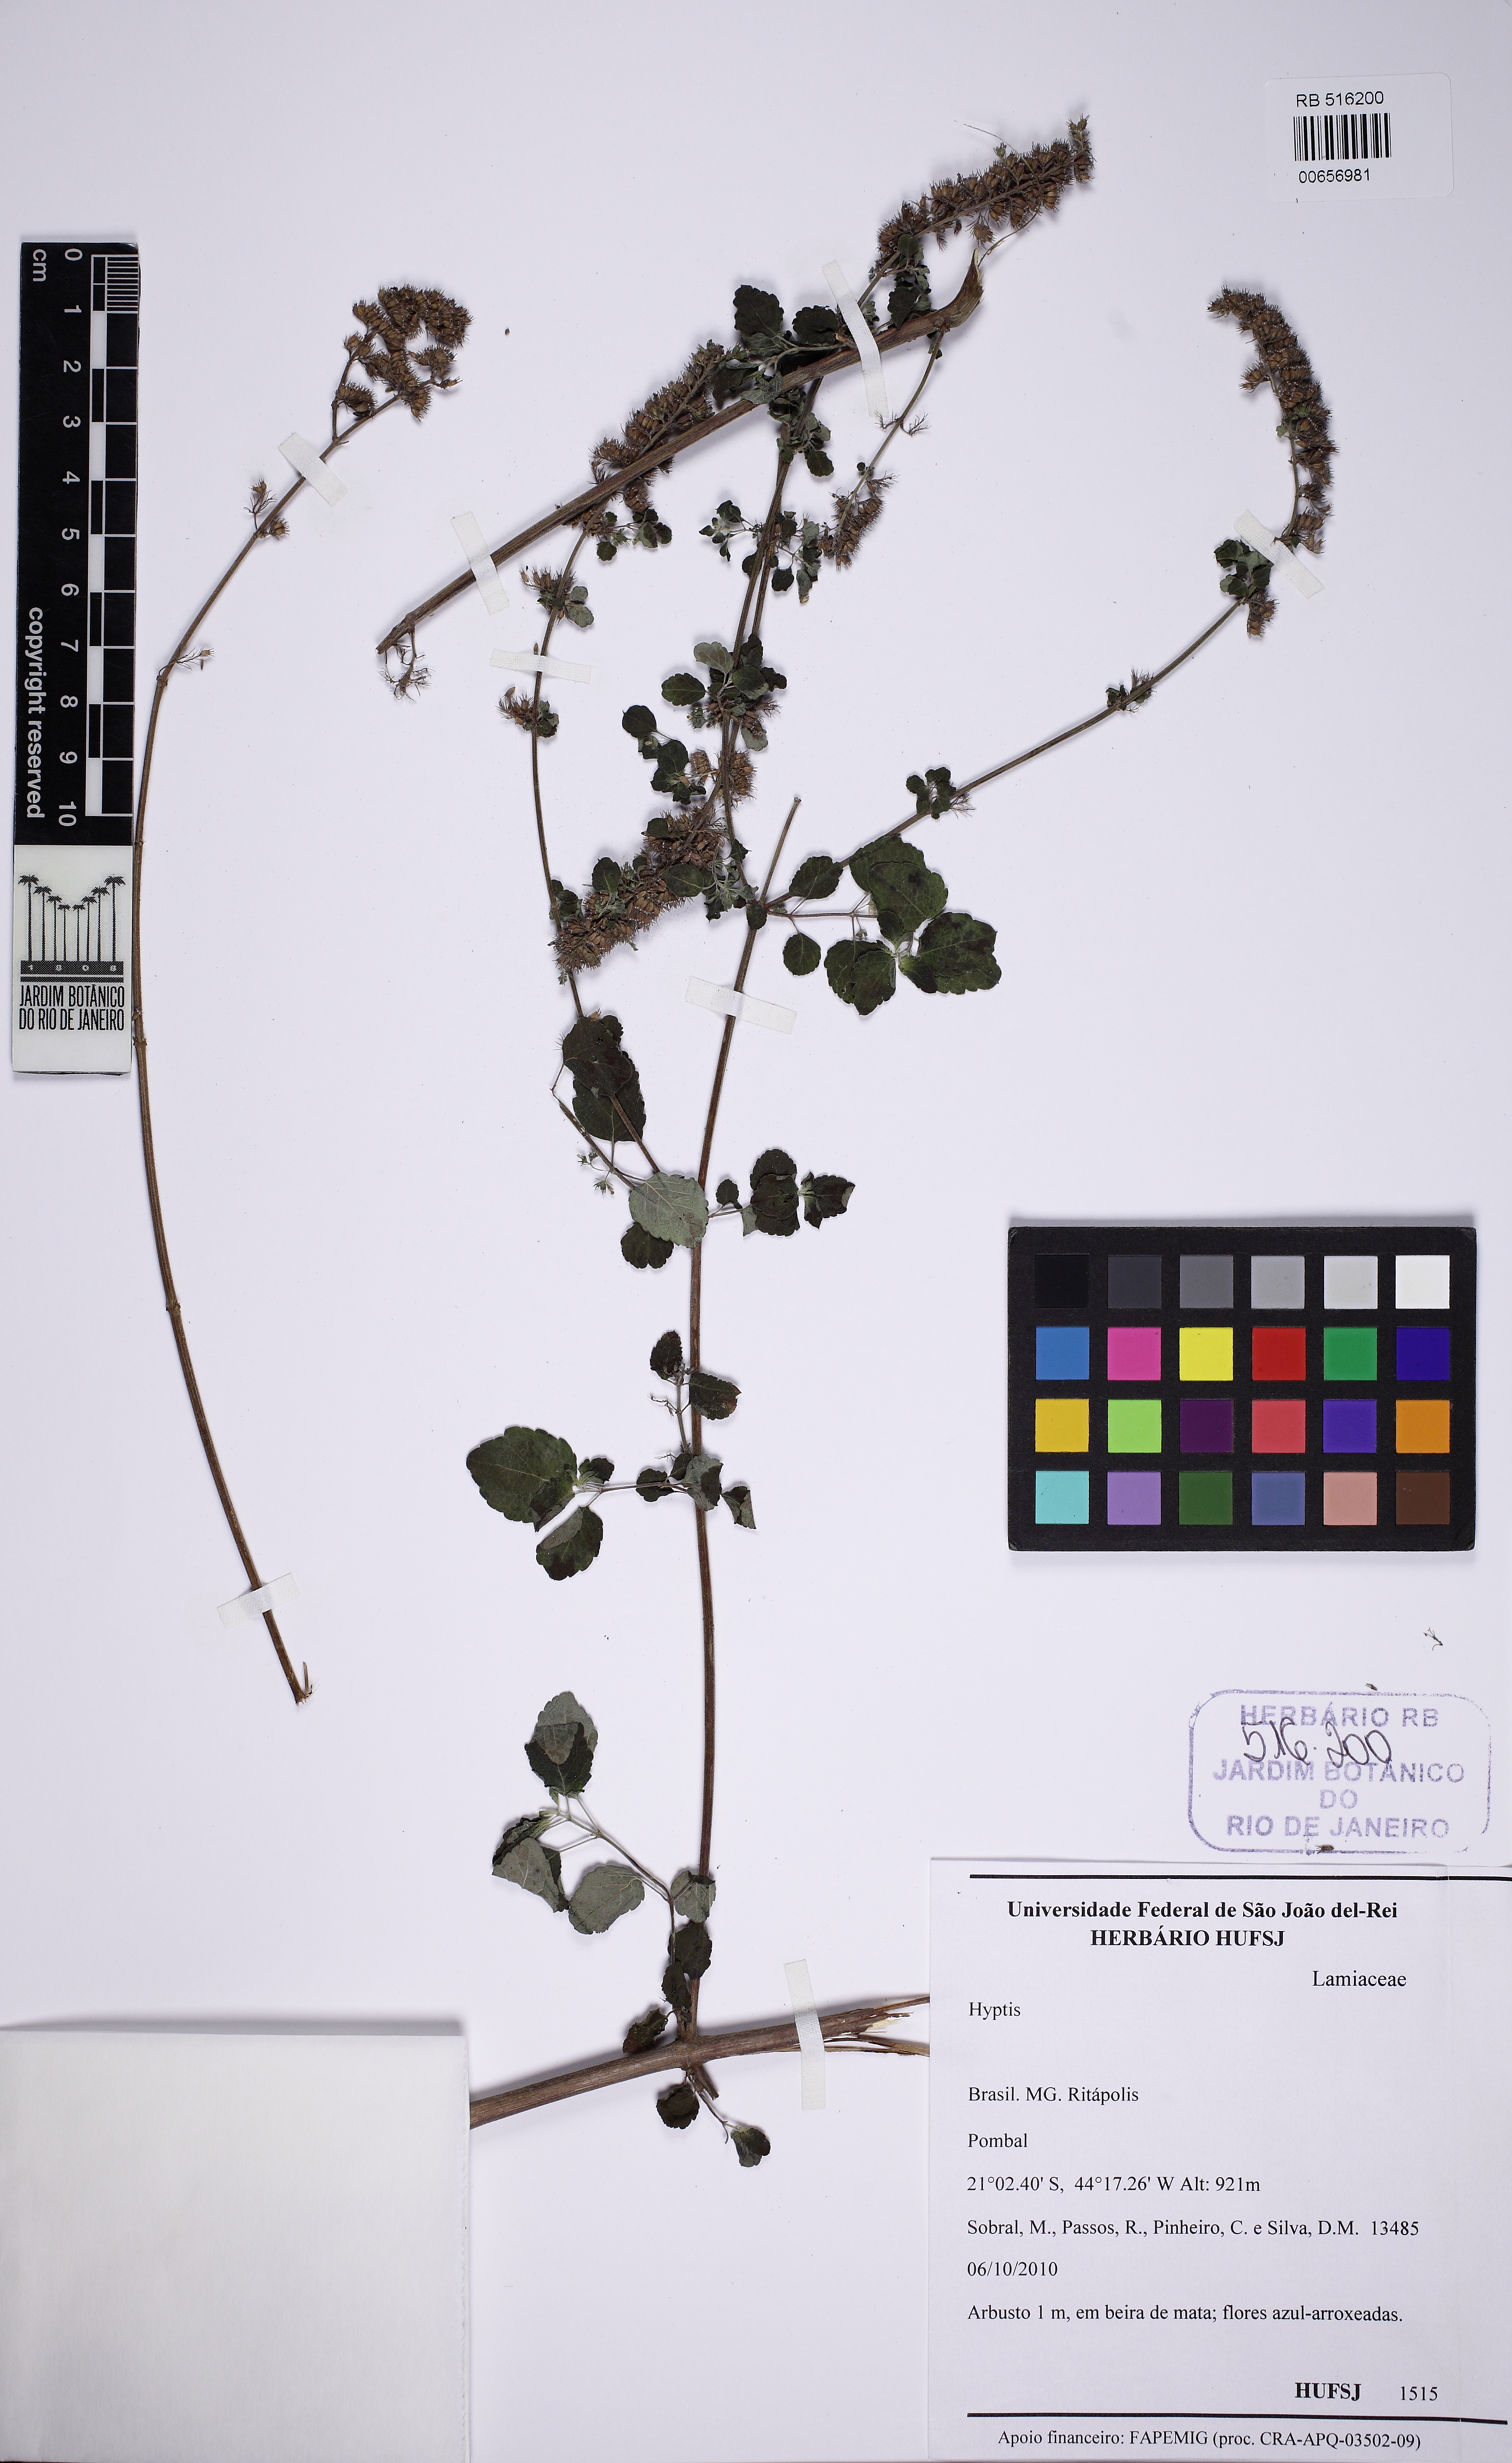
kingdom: Plantae
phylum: Tracheophyta
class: Magnoliopsida
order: Lamiales
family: Lamiaceae
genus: Mesosphaerum
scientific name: Mesosphaerum pectinatum
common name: Comb hyptis
